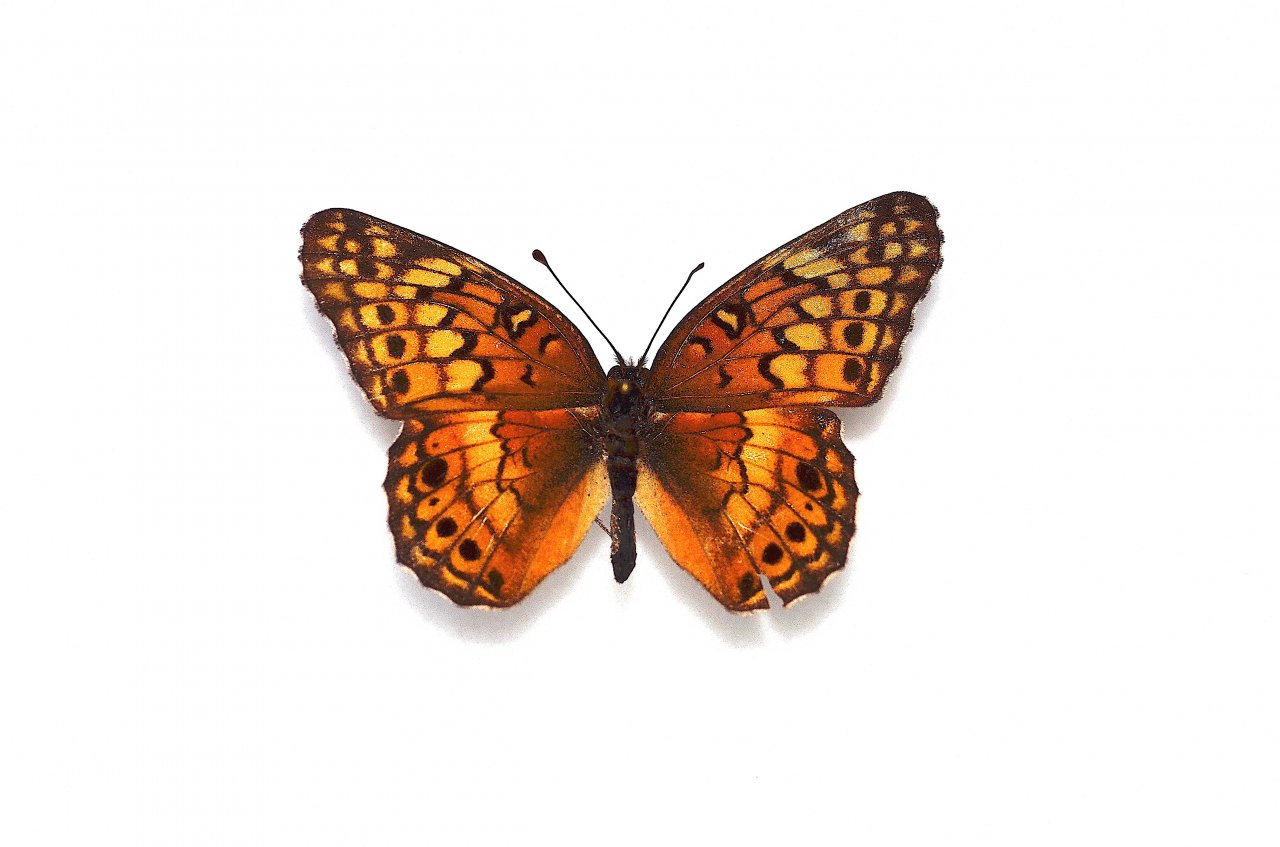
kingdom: Animalia
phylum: Arthropoda
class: Insecta
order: Lepidoptera
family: Nymphalidae
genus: Euptoieta
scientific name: Euptoieta claudia
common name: Variegated Fritillary
